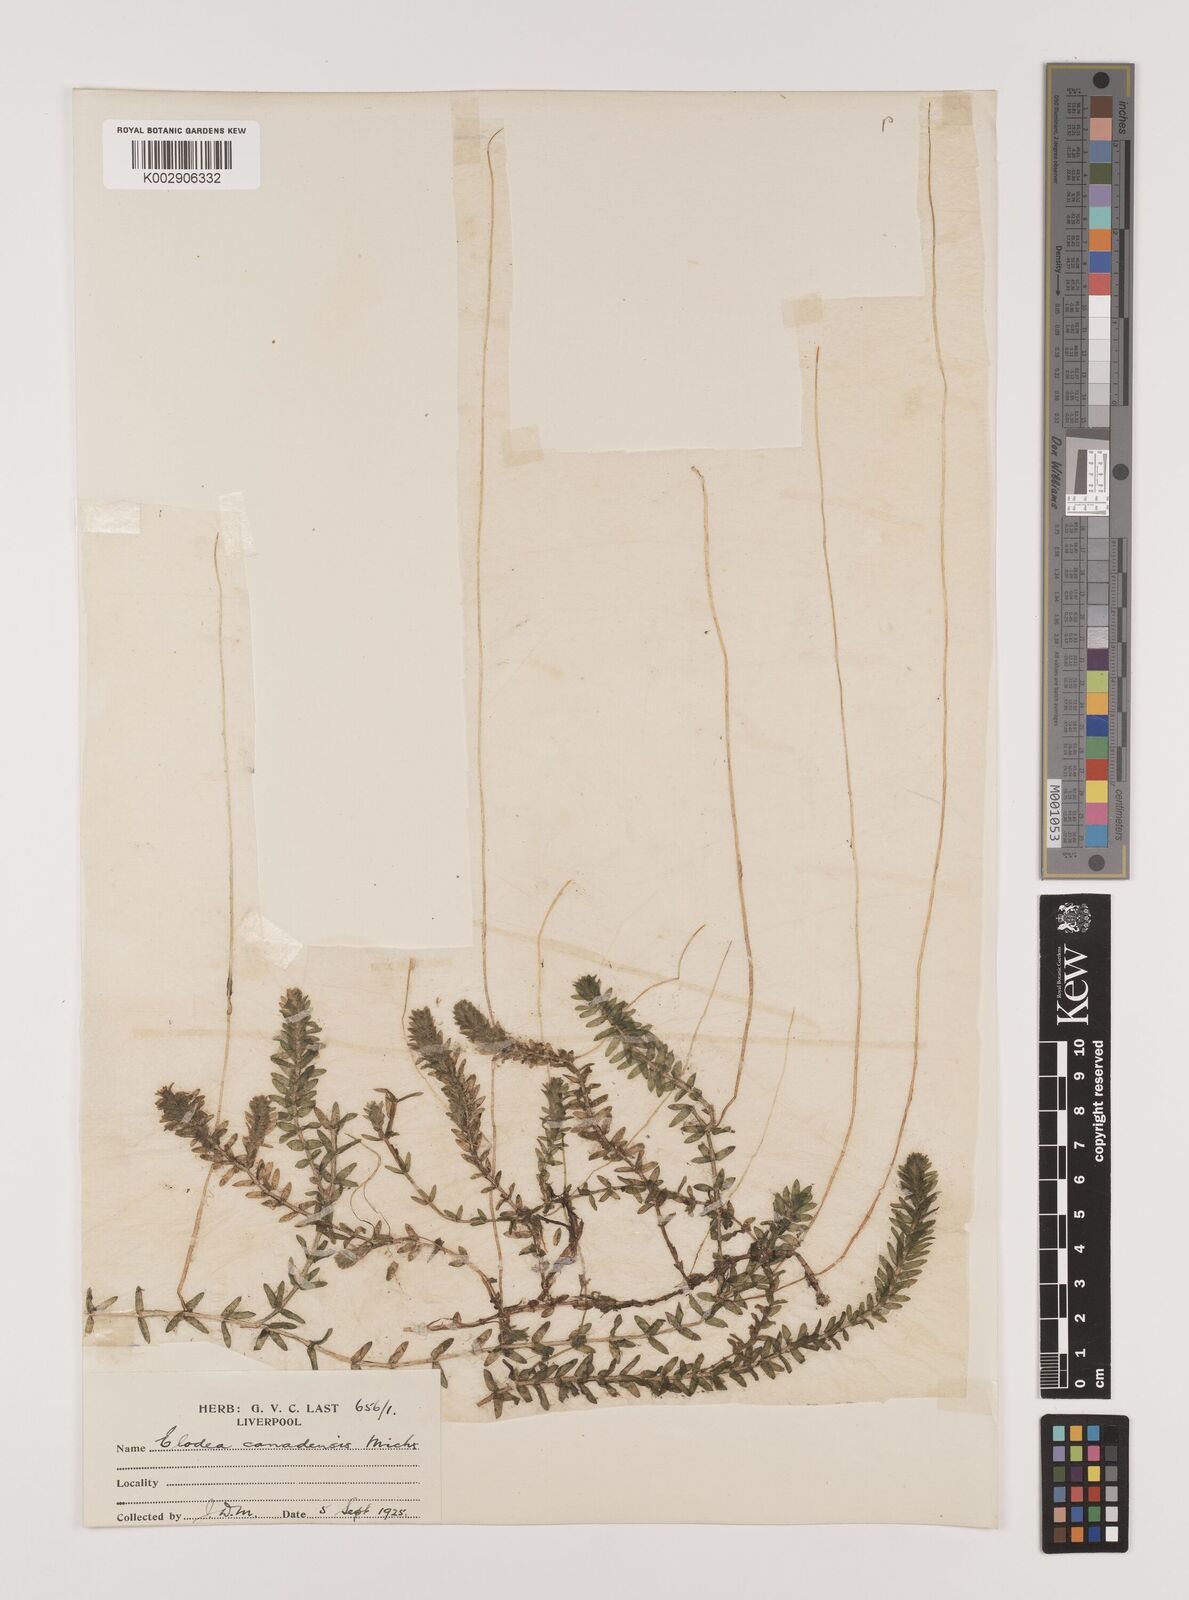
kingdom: Plantae
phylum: Tracheophyta
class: Liliopsida
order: Alismatales
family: Hydrocharitaceae
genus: Elodea
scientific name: Elodea canadensis
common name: Canadian waterweed
